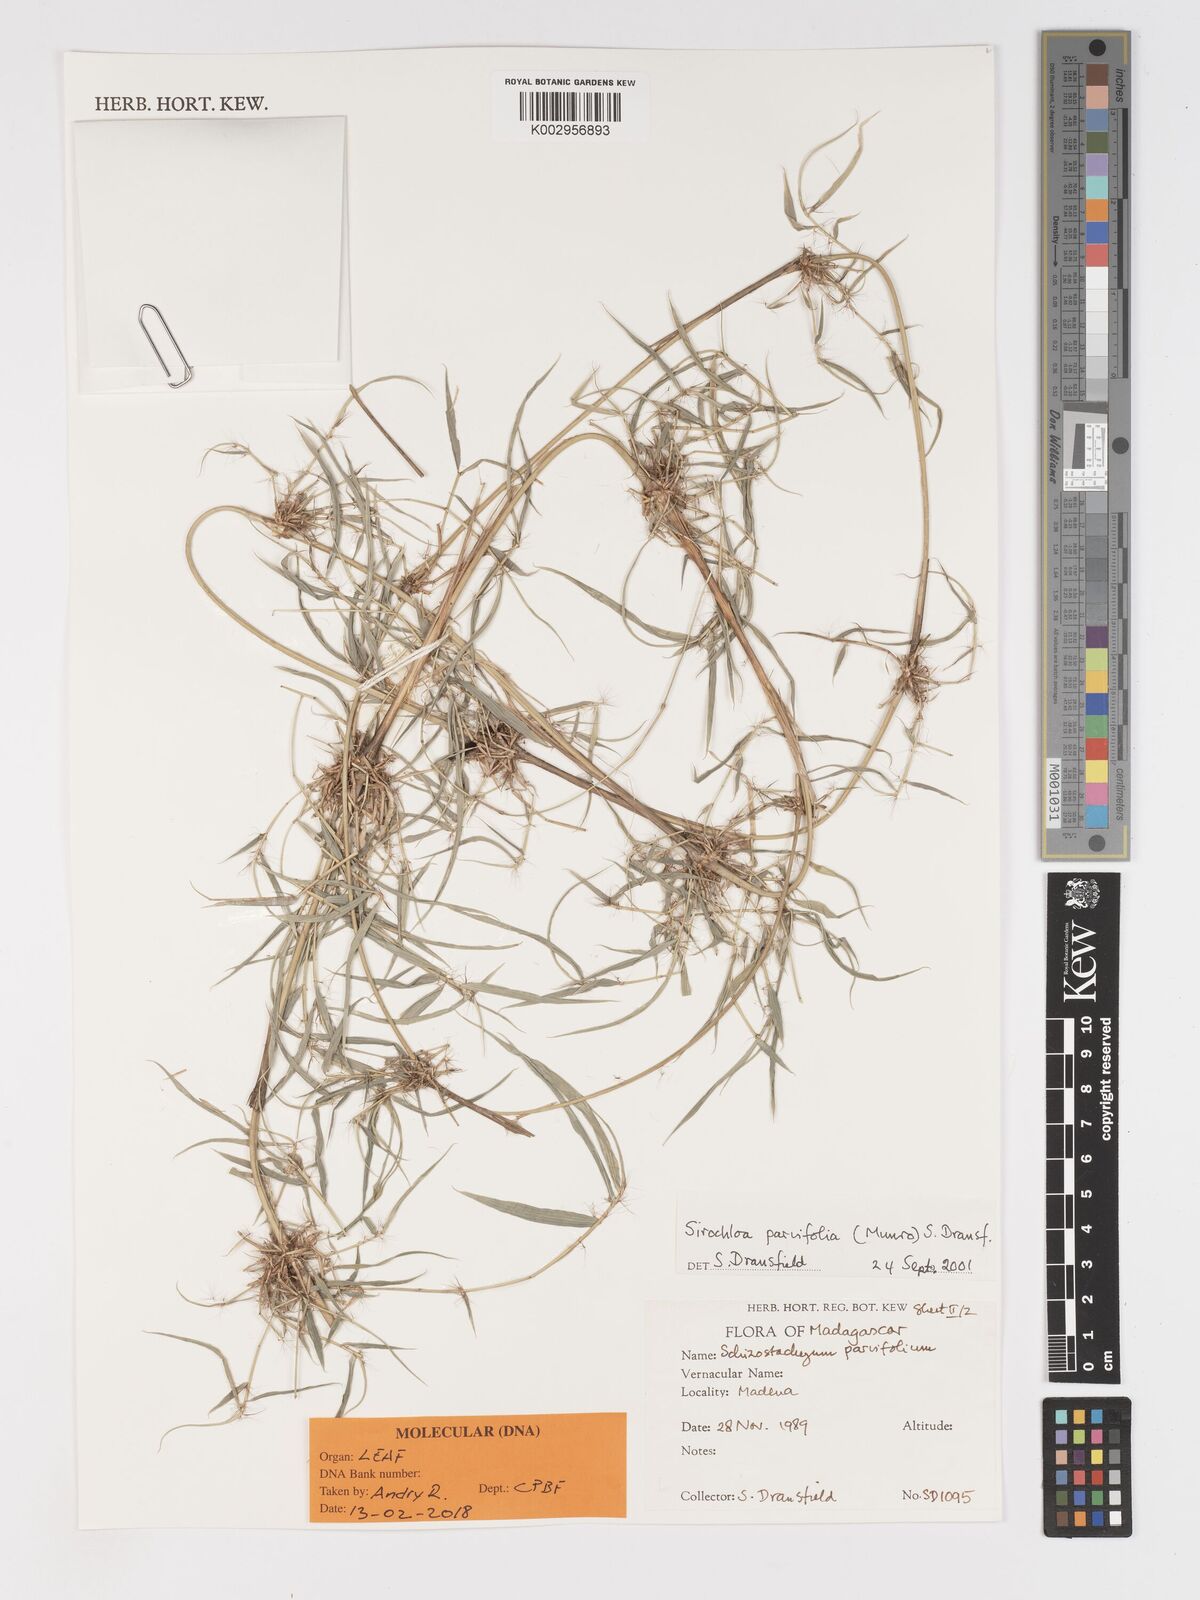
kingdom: Plantae
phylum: Tracheophyta
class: Liliopsida
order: Poales
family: Poaceae
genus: Sirochloa
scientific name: Sirochloa parvifolia
